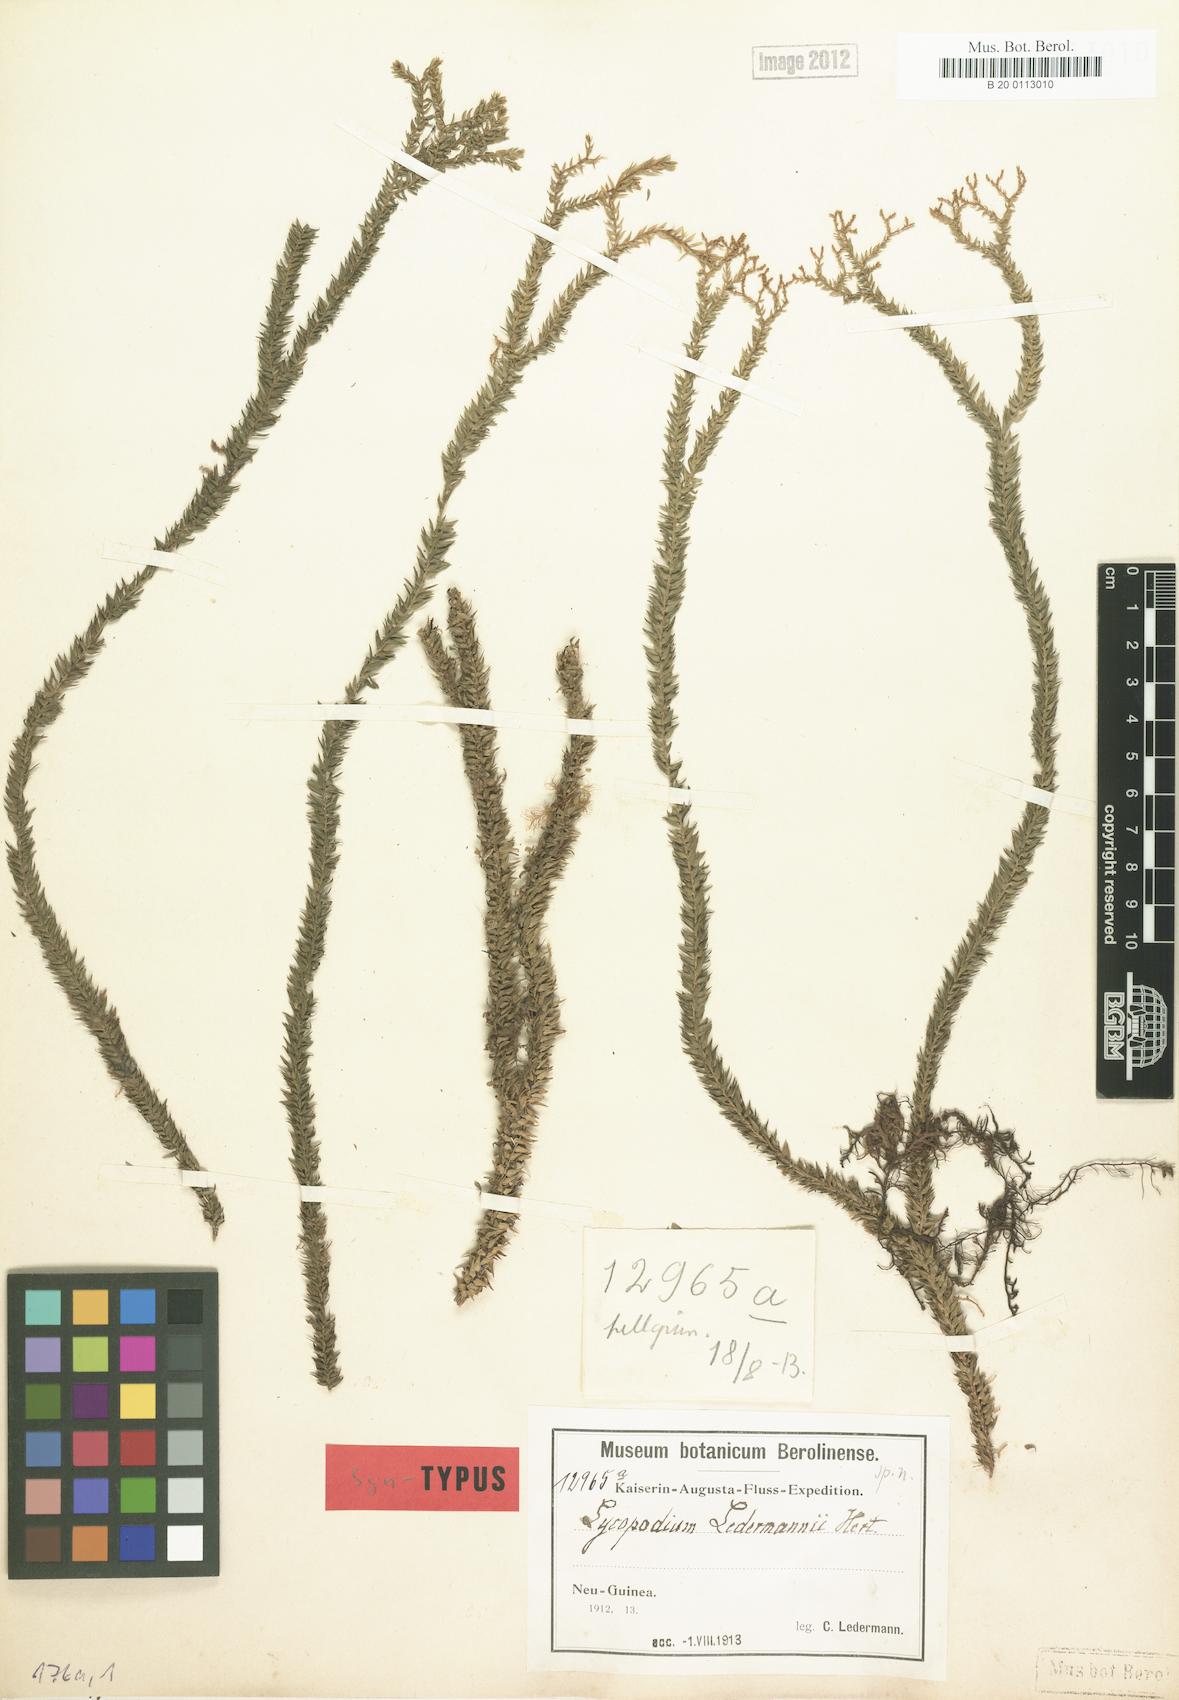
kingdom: Plantae
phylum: Tracheophyta
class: Lycopodiopsida
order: Lycopodiales
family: Lycopodiaceae
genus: Phlegmariurus
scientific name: Phlegmariurus ledermannii
